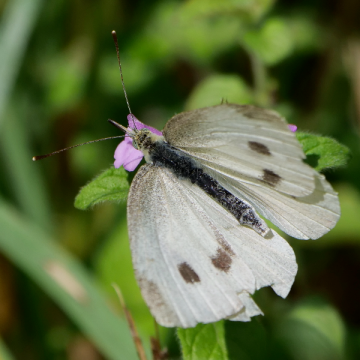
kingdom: Animalia
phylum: Arthropoda
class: Insecta
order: Lepidoptera
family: Pieridae
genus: Pieris
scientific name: Pieris rapae
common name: Cabbage White
